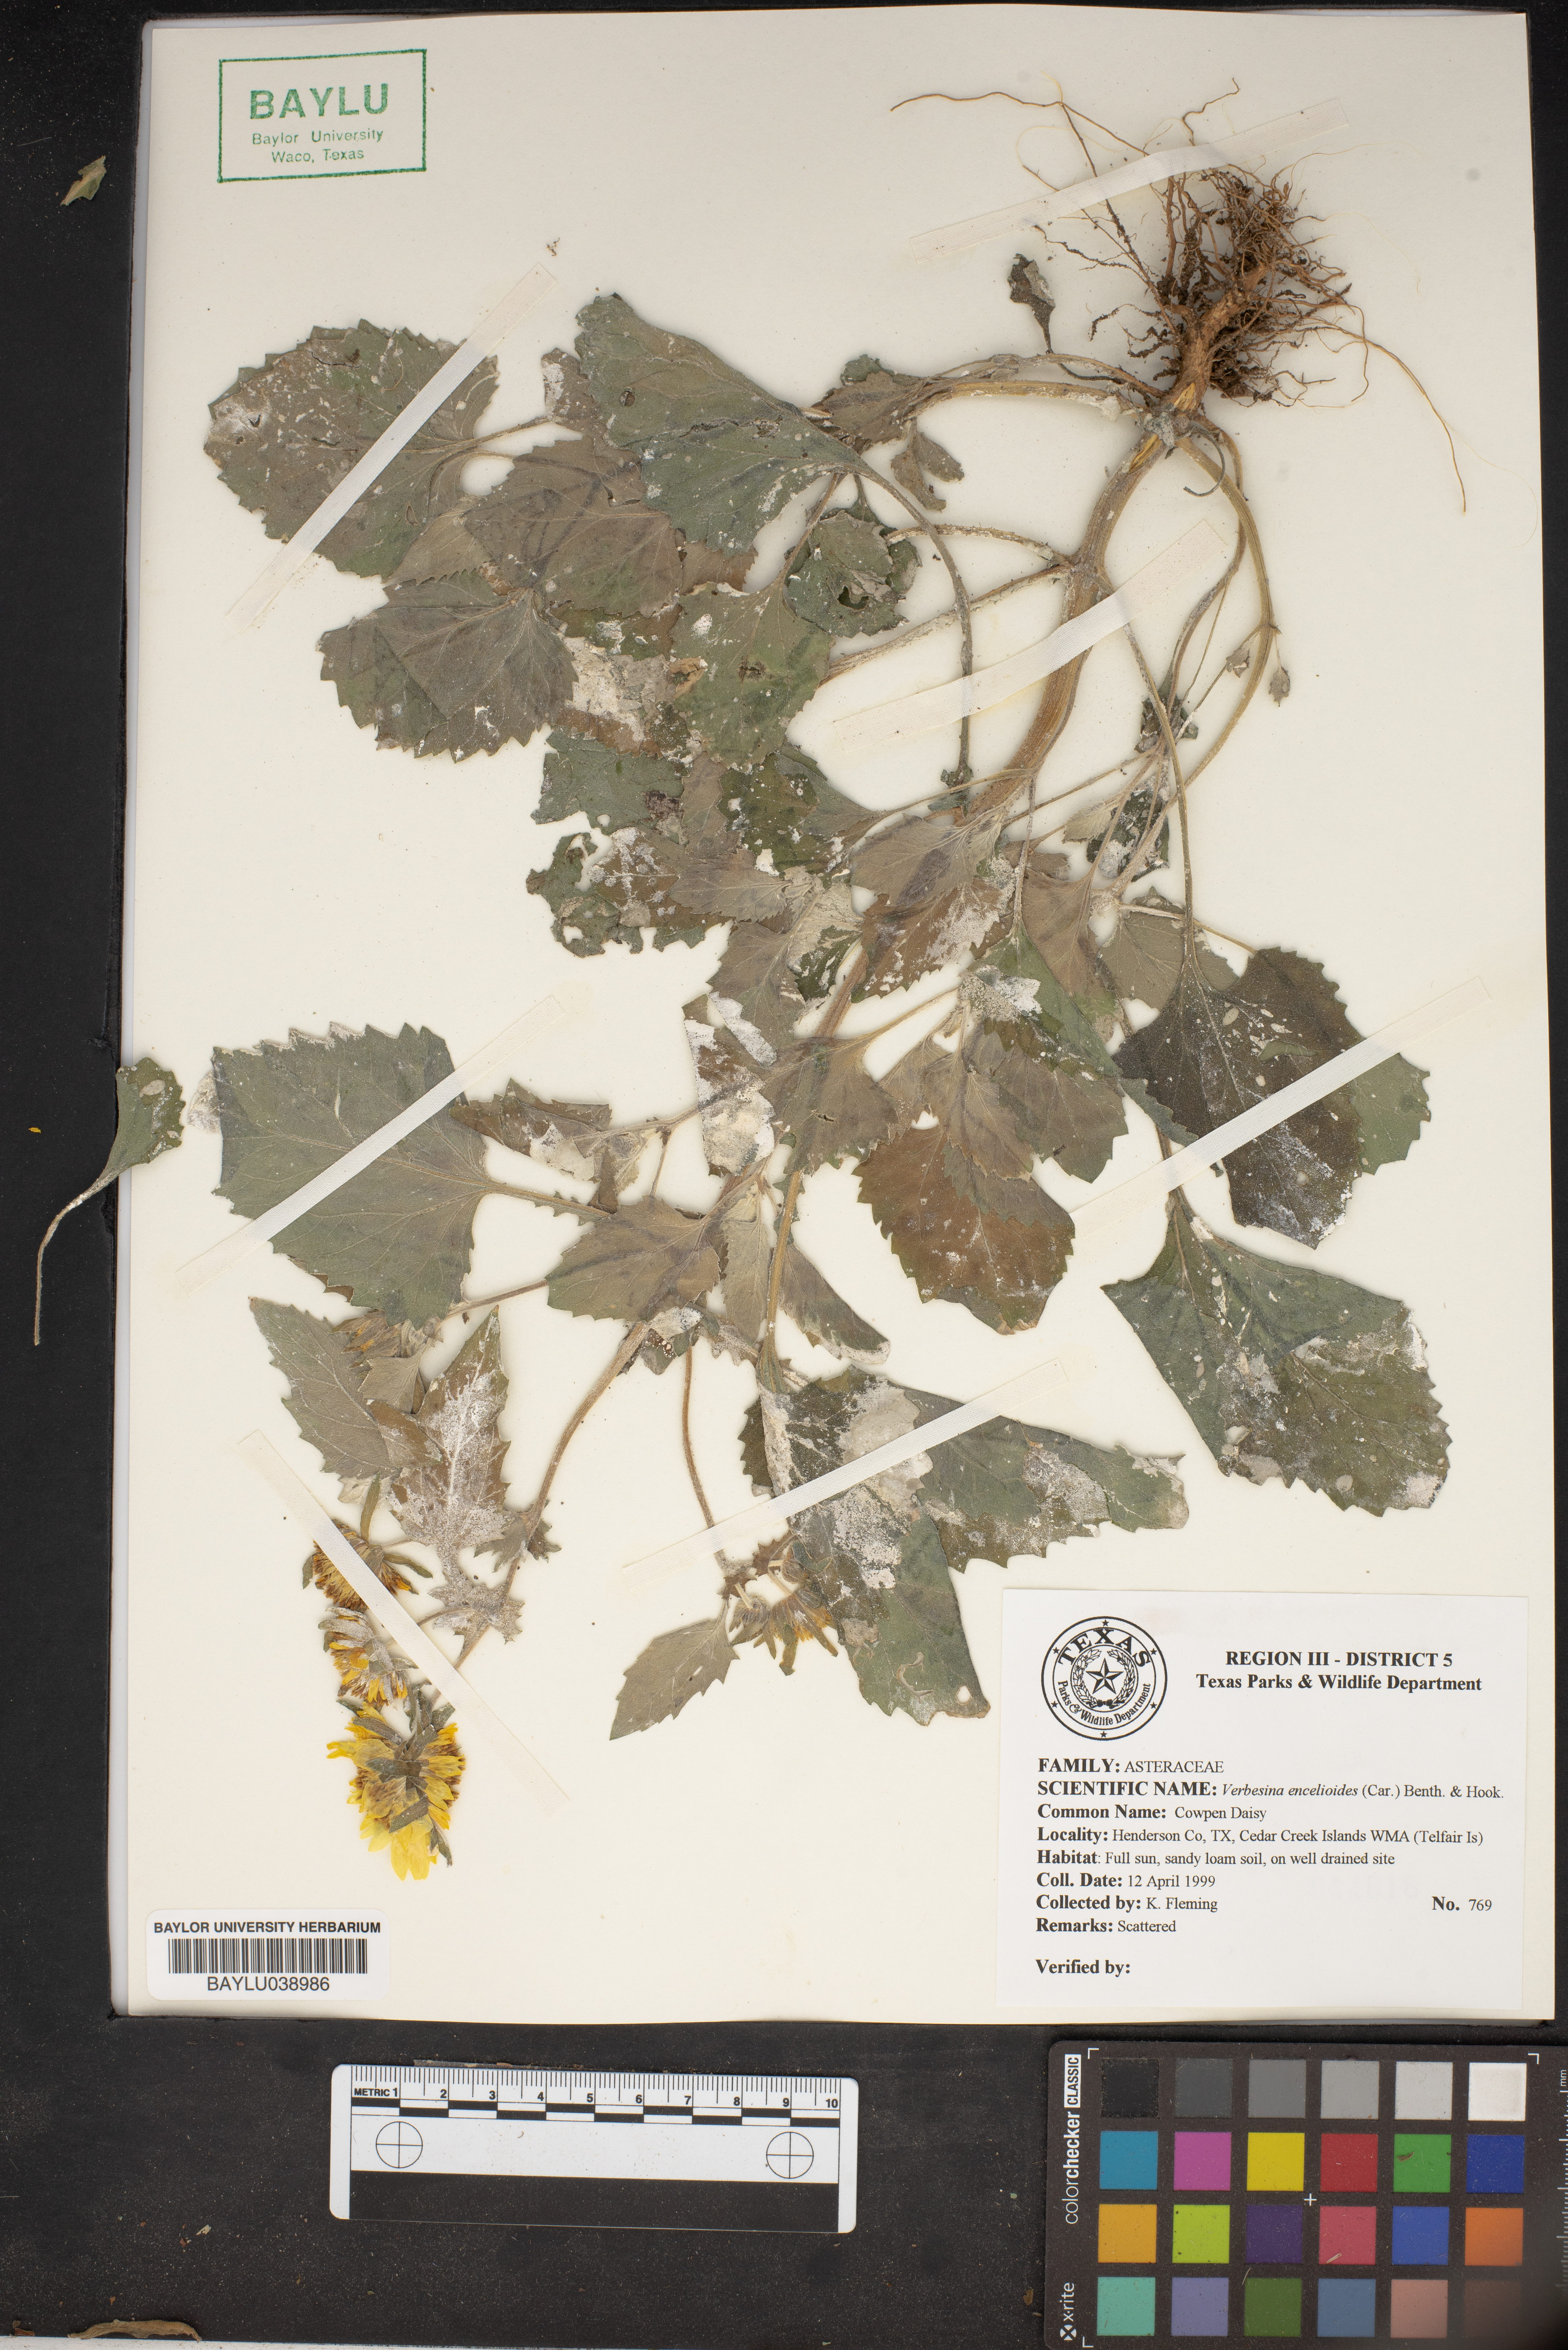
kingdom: Plantae
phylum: Tracheophyta
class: Magnoliopsida
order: Asterales
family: Asteraceae
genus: Verbesina
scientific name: Verbesina encelioides
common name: Golden crownbeard
